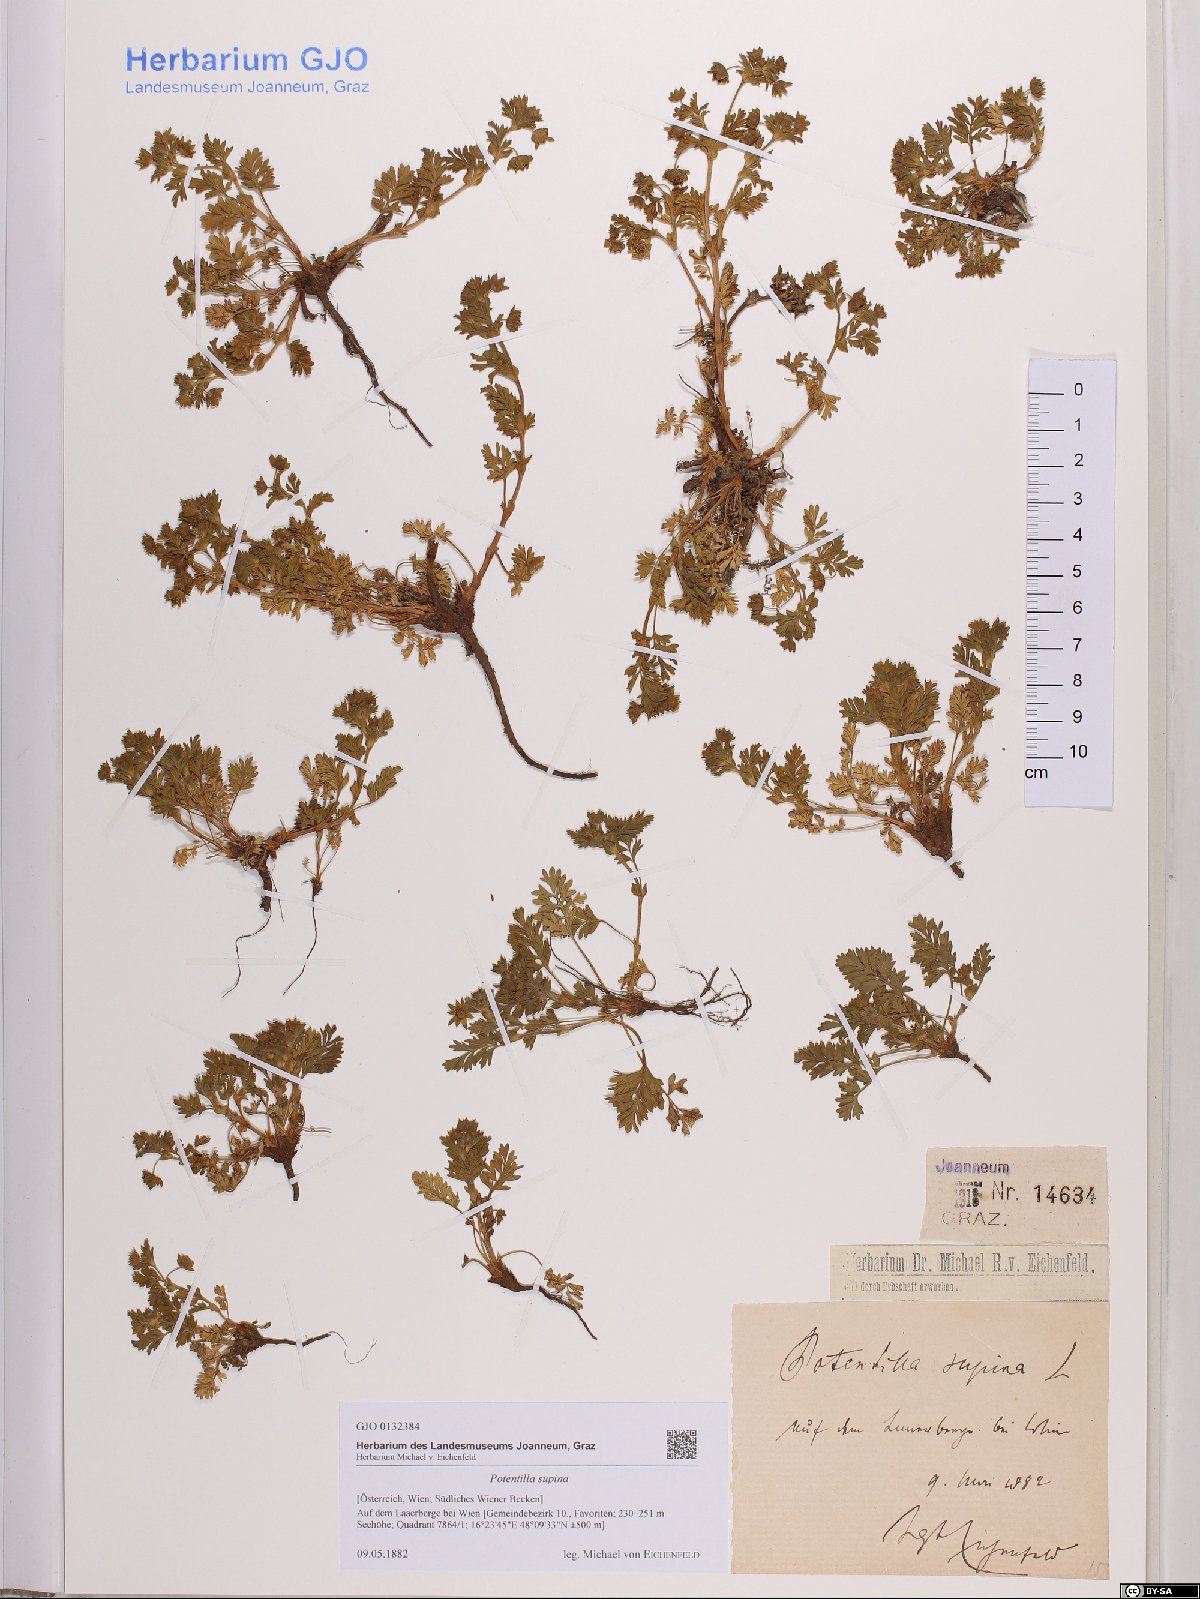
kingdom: Plantae
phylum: Tracheophyta
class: Magnoliopsida
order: Rosales
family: Rosaceae
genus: Potentilla
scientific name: Potentilla supina
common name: Prostrate cinquefoil
